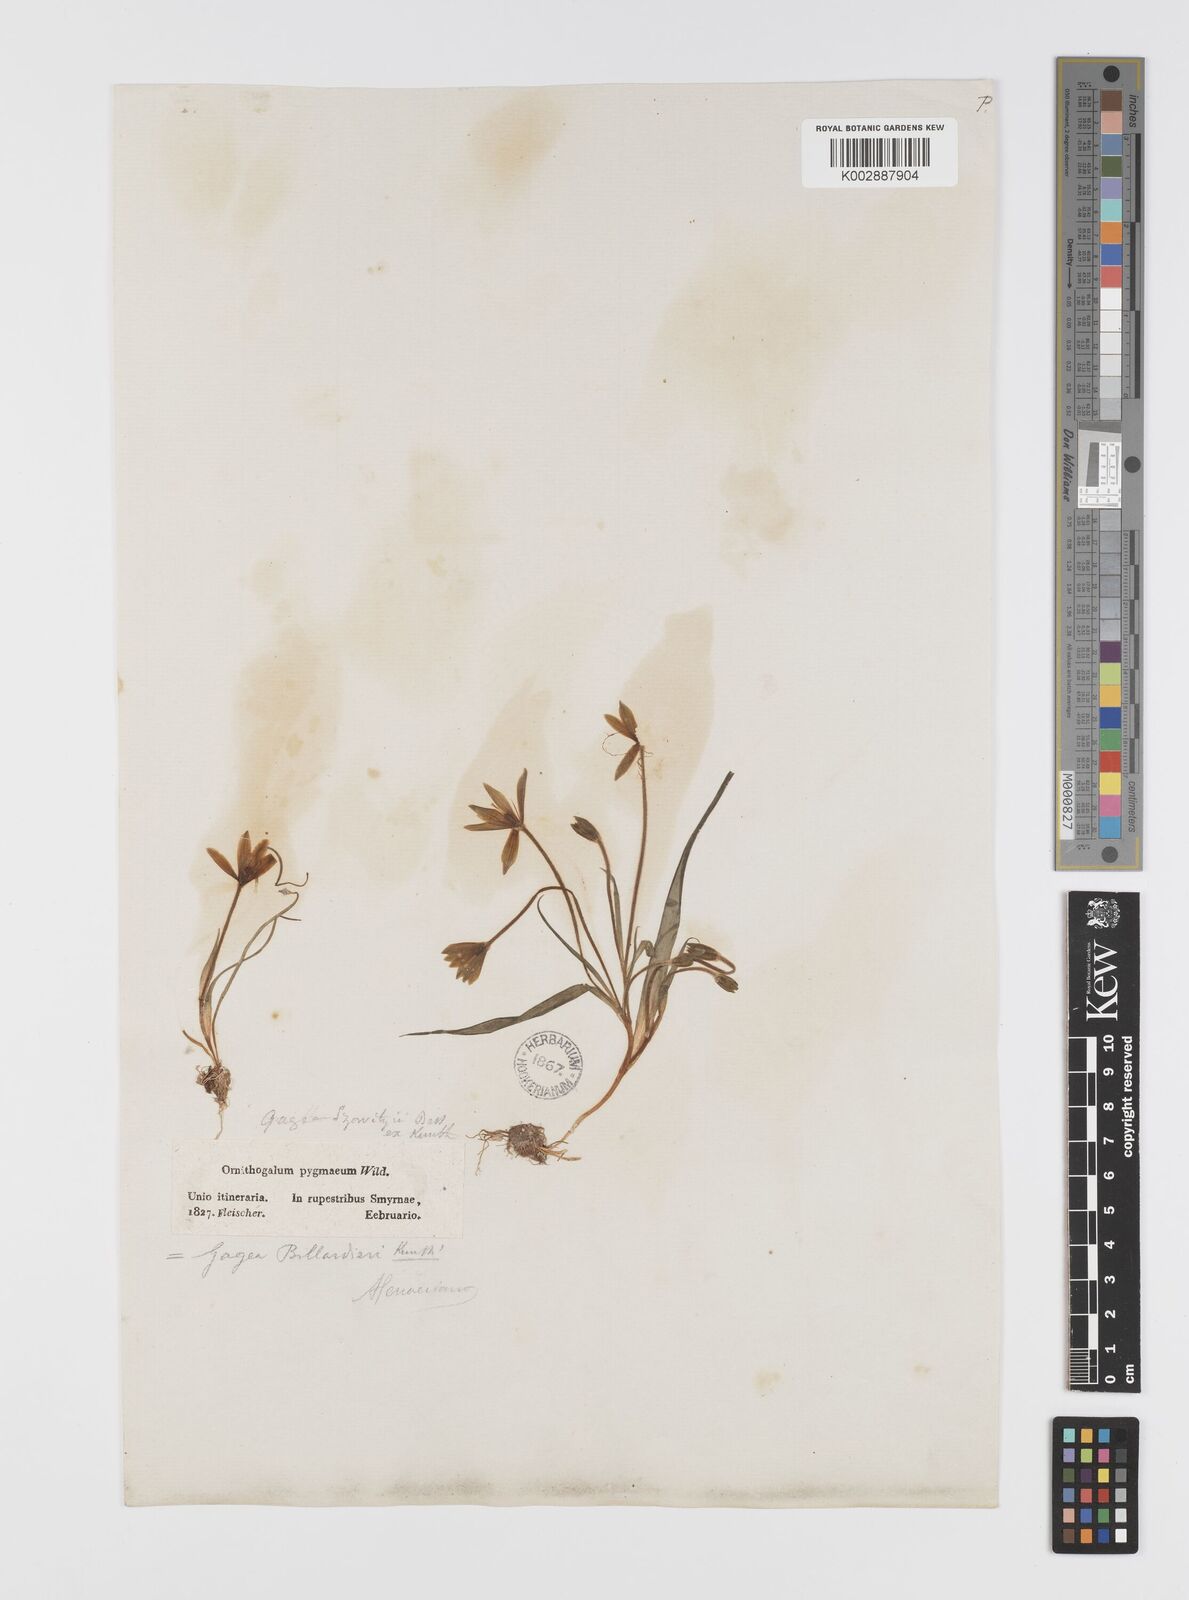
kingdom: Plantae
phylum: Tracheophyta
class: Liliopsida
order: Liliales
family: Liliaceae
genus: Gagea
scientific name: Gagea peduncularis
